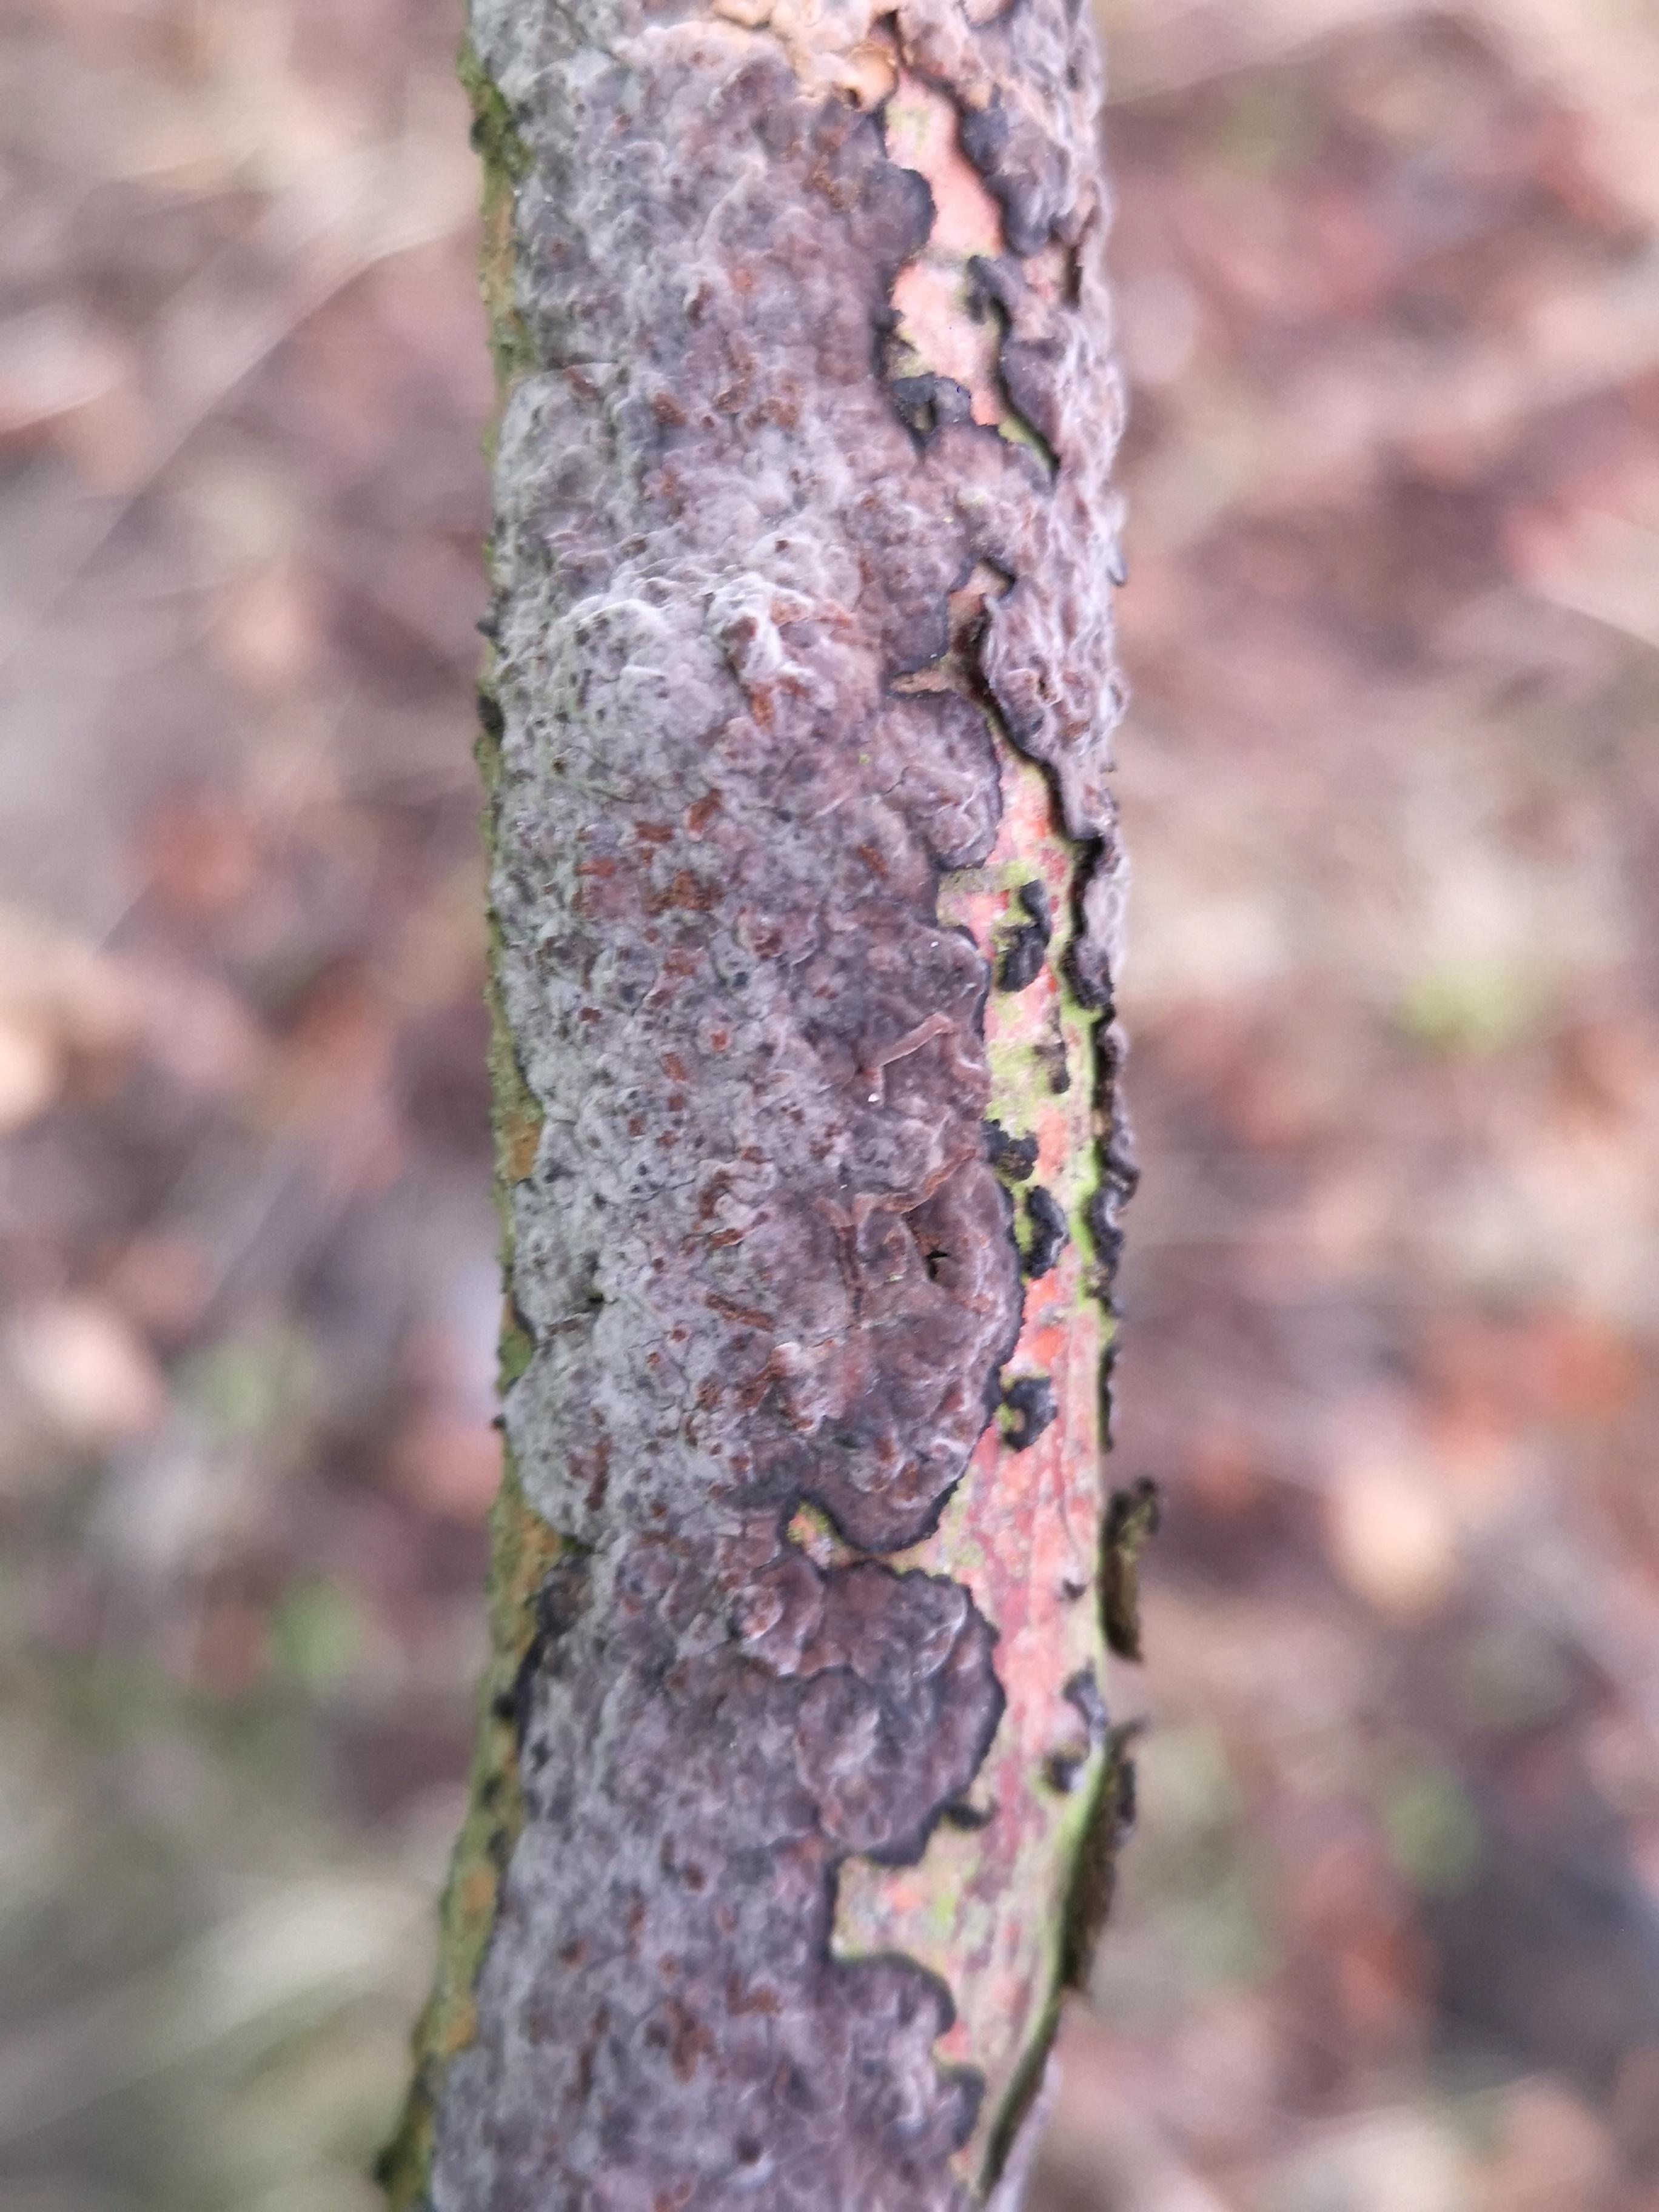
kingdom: Fungi
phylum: Basidiomycota
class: Agaricomycetes
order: Russulales
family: Peniophoraceae
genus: Peniophora
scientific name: Peniophora quercina
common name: ege-voksskind
